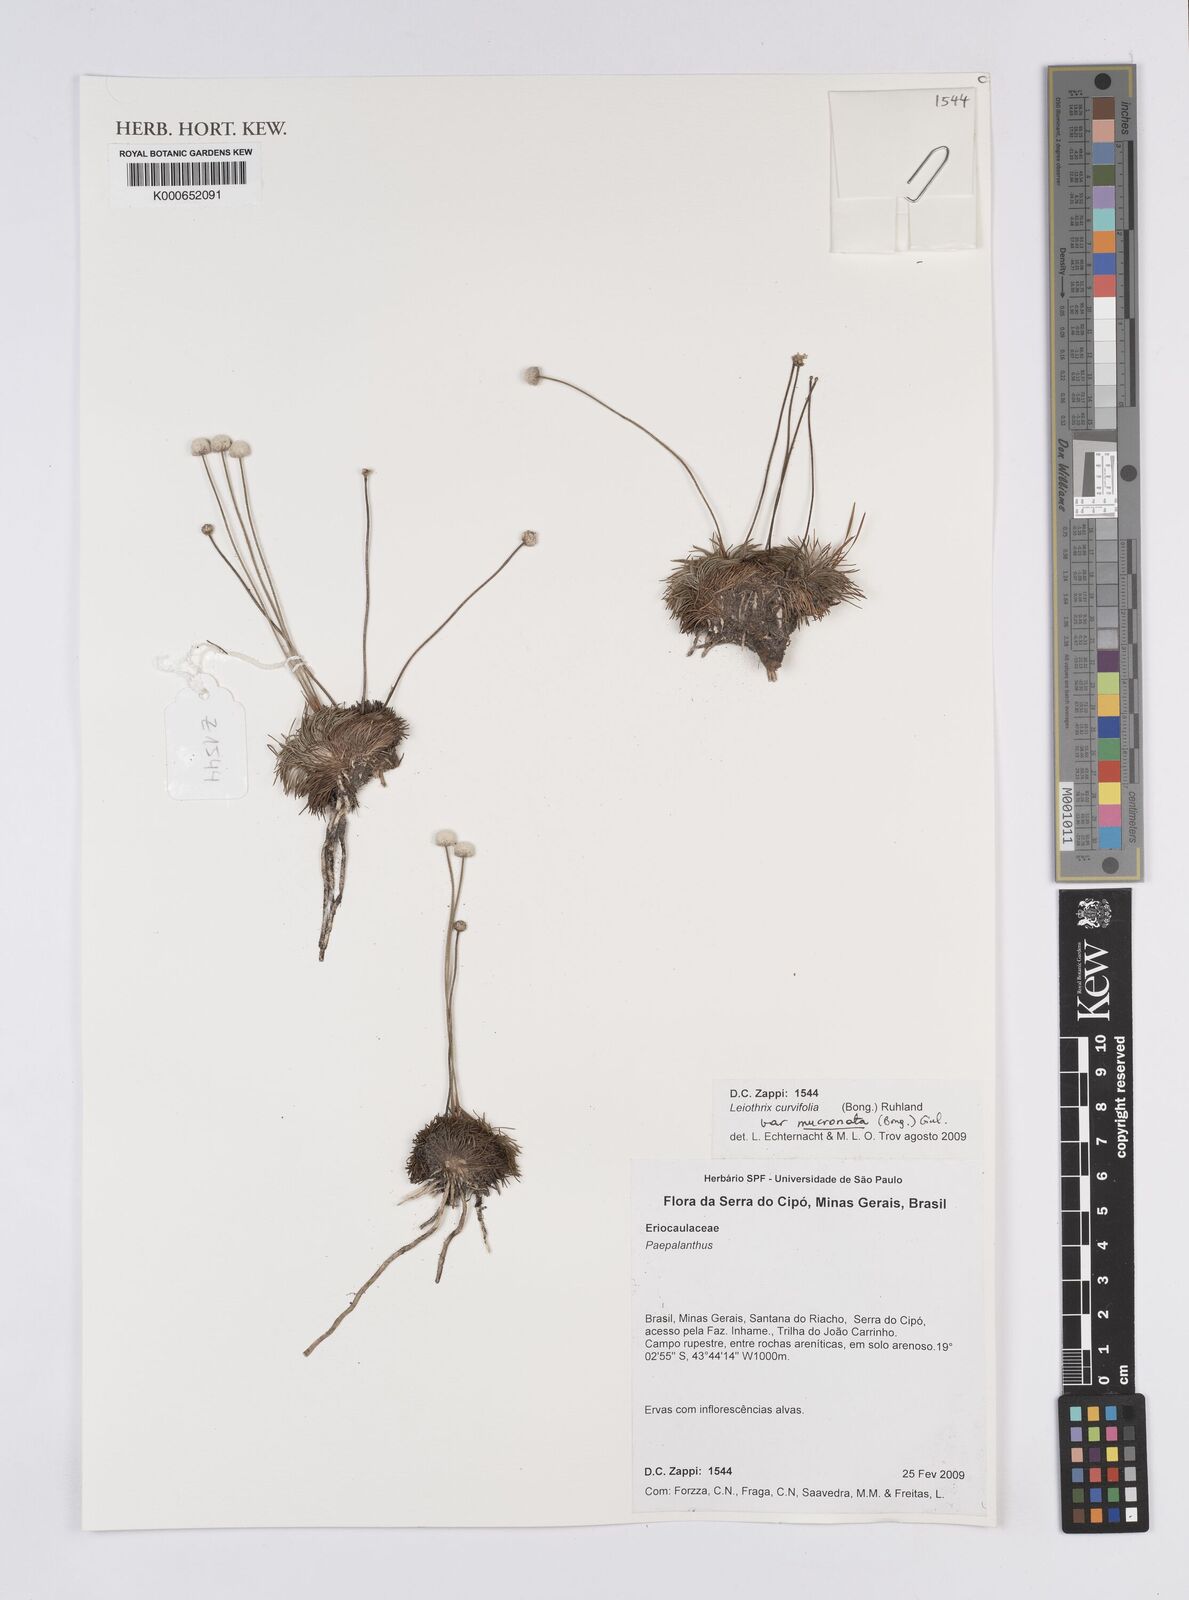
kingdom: Plantae
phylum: Tracheophyta
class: Liliopsida
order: Poales
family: Eriocaulaceae
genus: Leiothrix
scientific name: Leiothrix curvifolia
